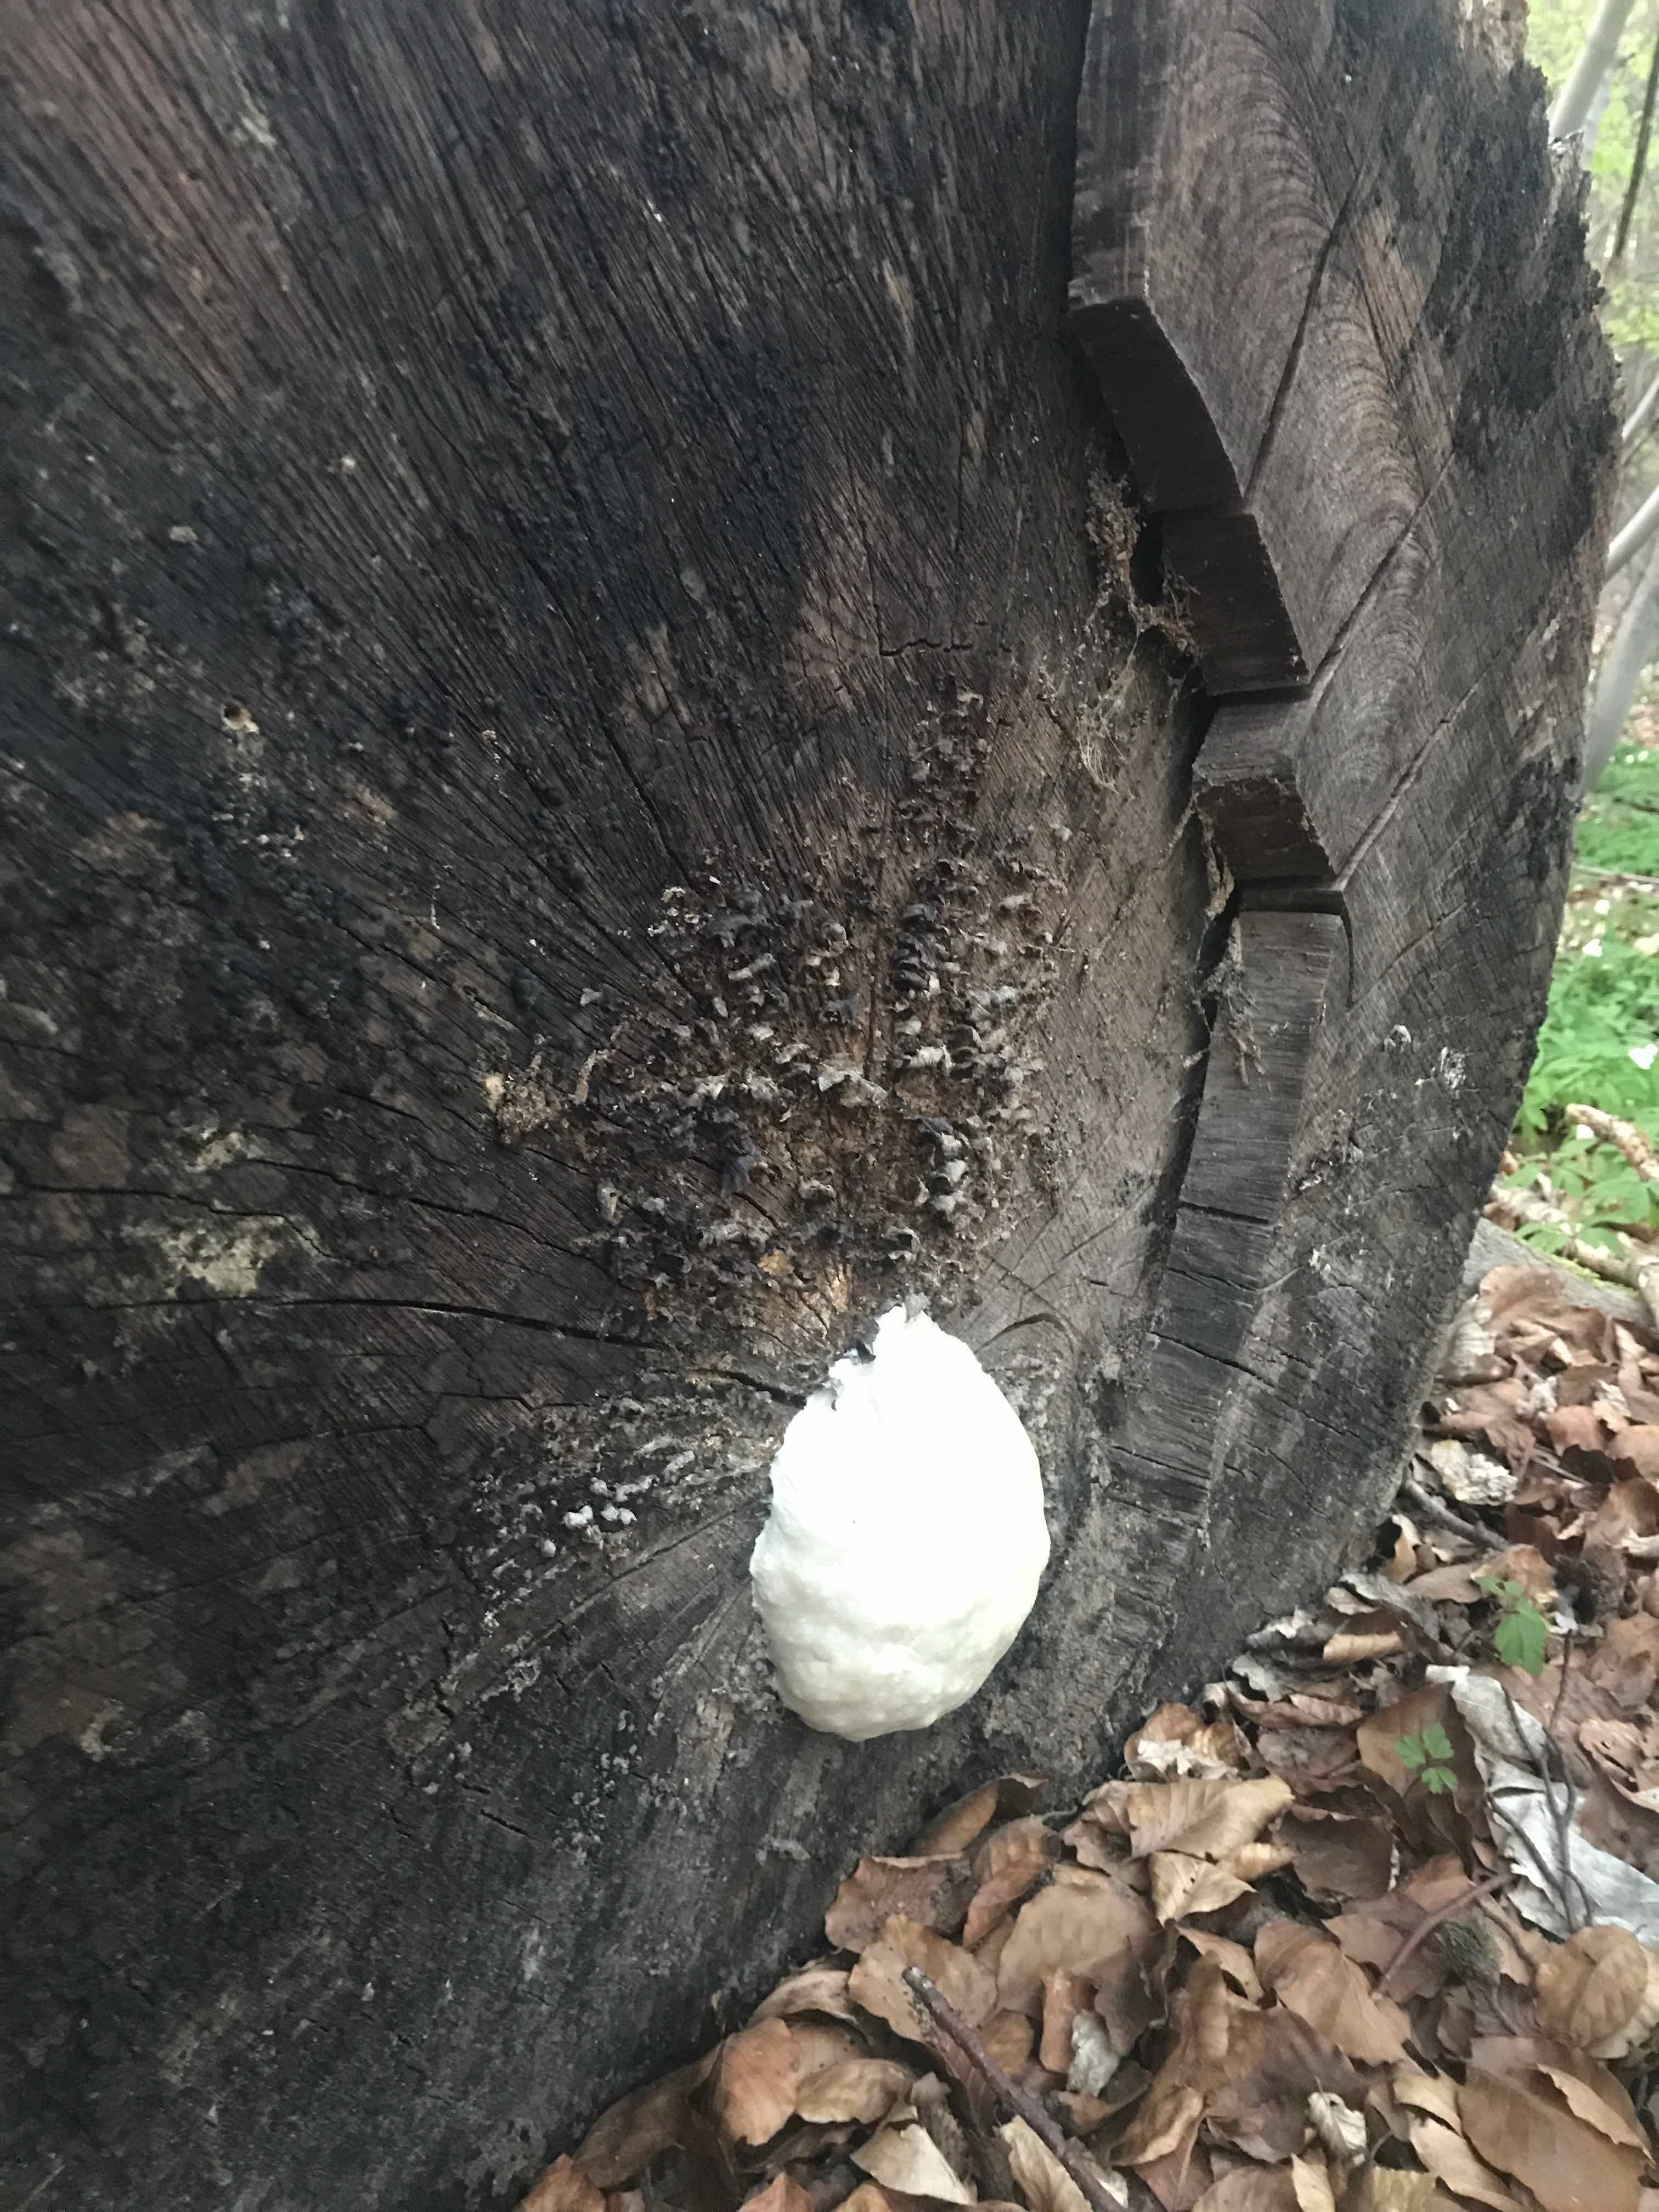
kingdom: Protozoa
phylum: Mycetozoa
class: Myxomycetes
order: Cribrariales
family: Tubiferaceae
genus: Reticularia
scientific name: Reticularia lycoperdon
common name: skinnende støvpude
